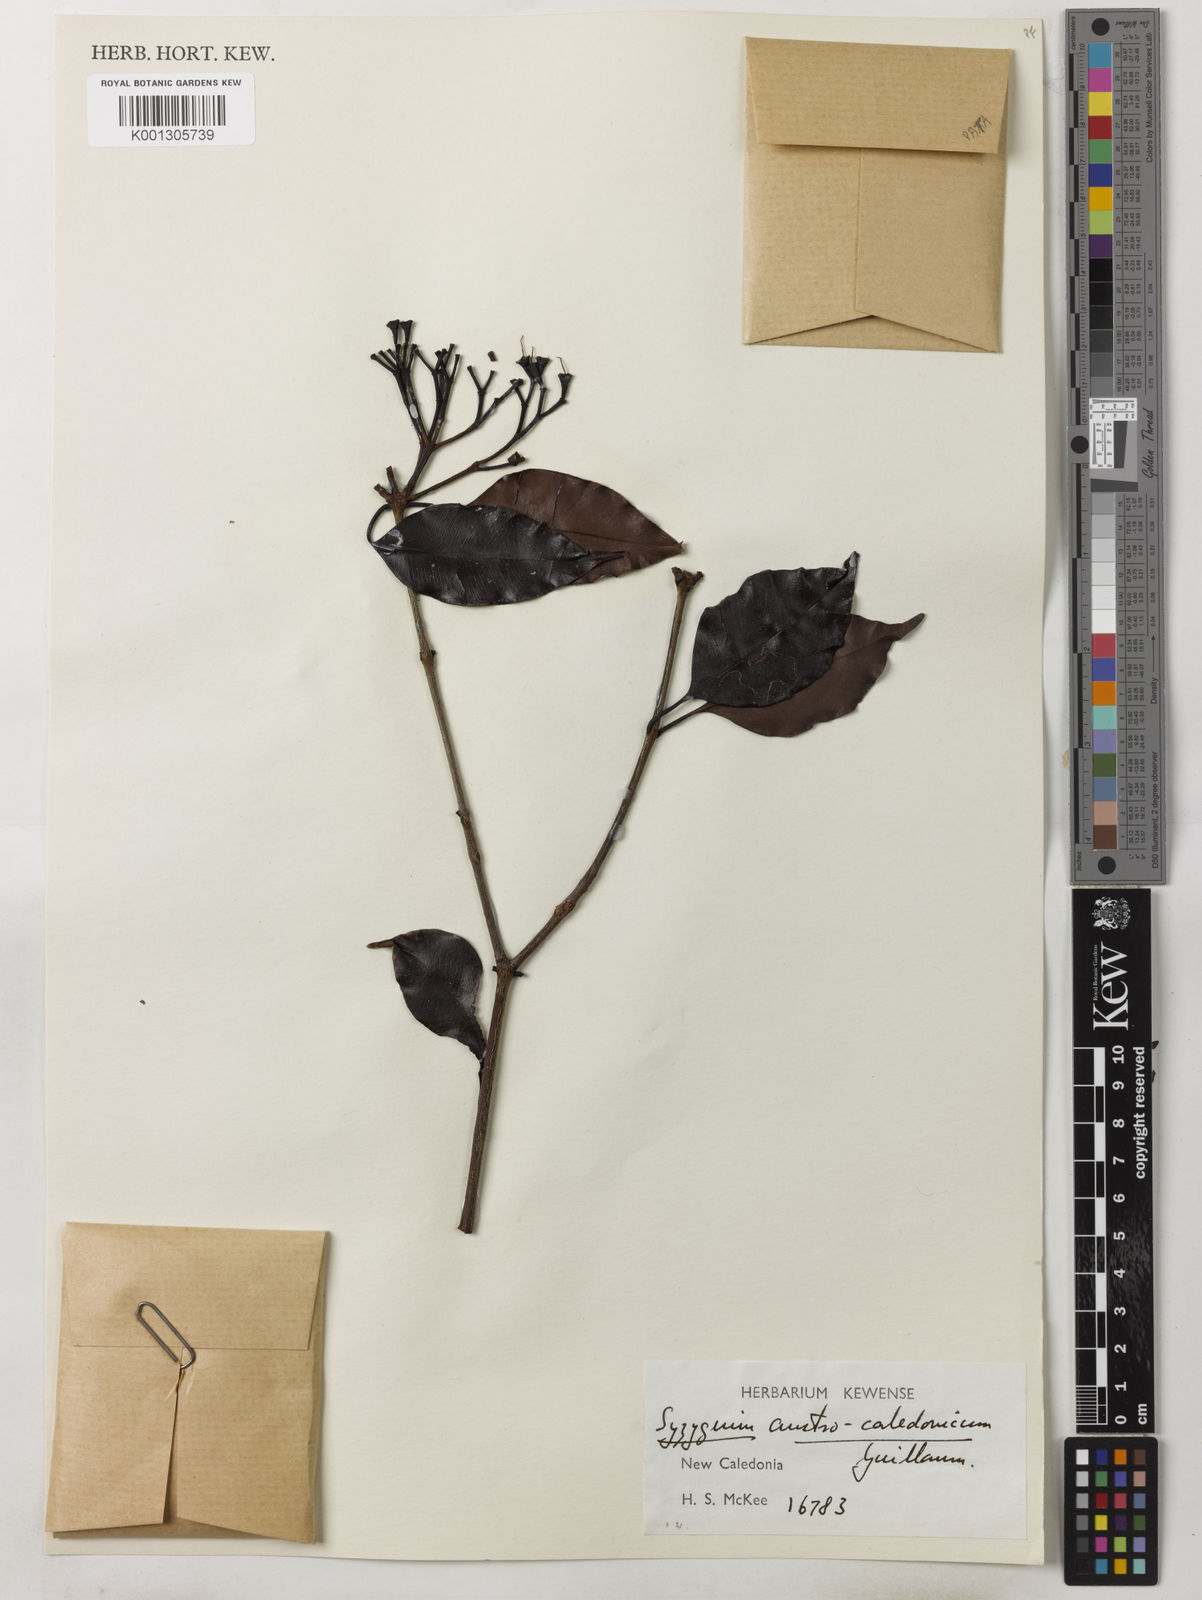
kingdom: Plantae
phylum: Tracheophyta
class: Magnoliopsida
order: Myrtales
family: Myrtaceae
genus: Syzygium
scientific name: Syzygium austrocaledonicum
